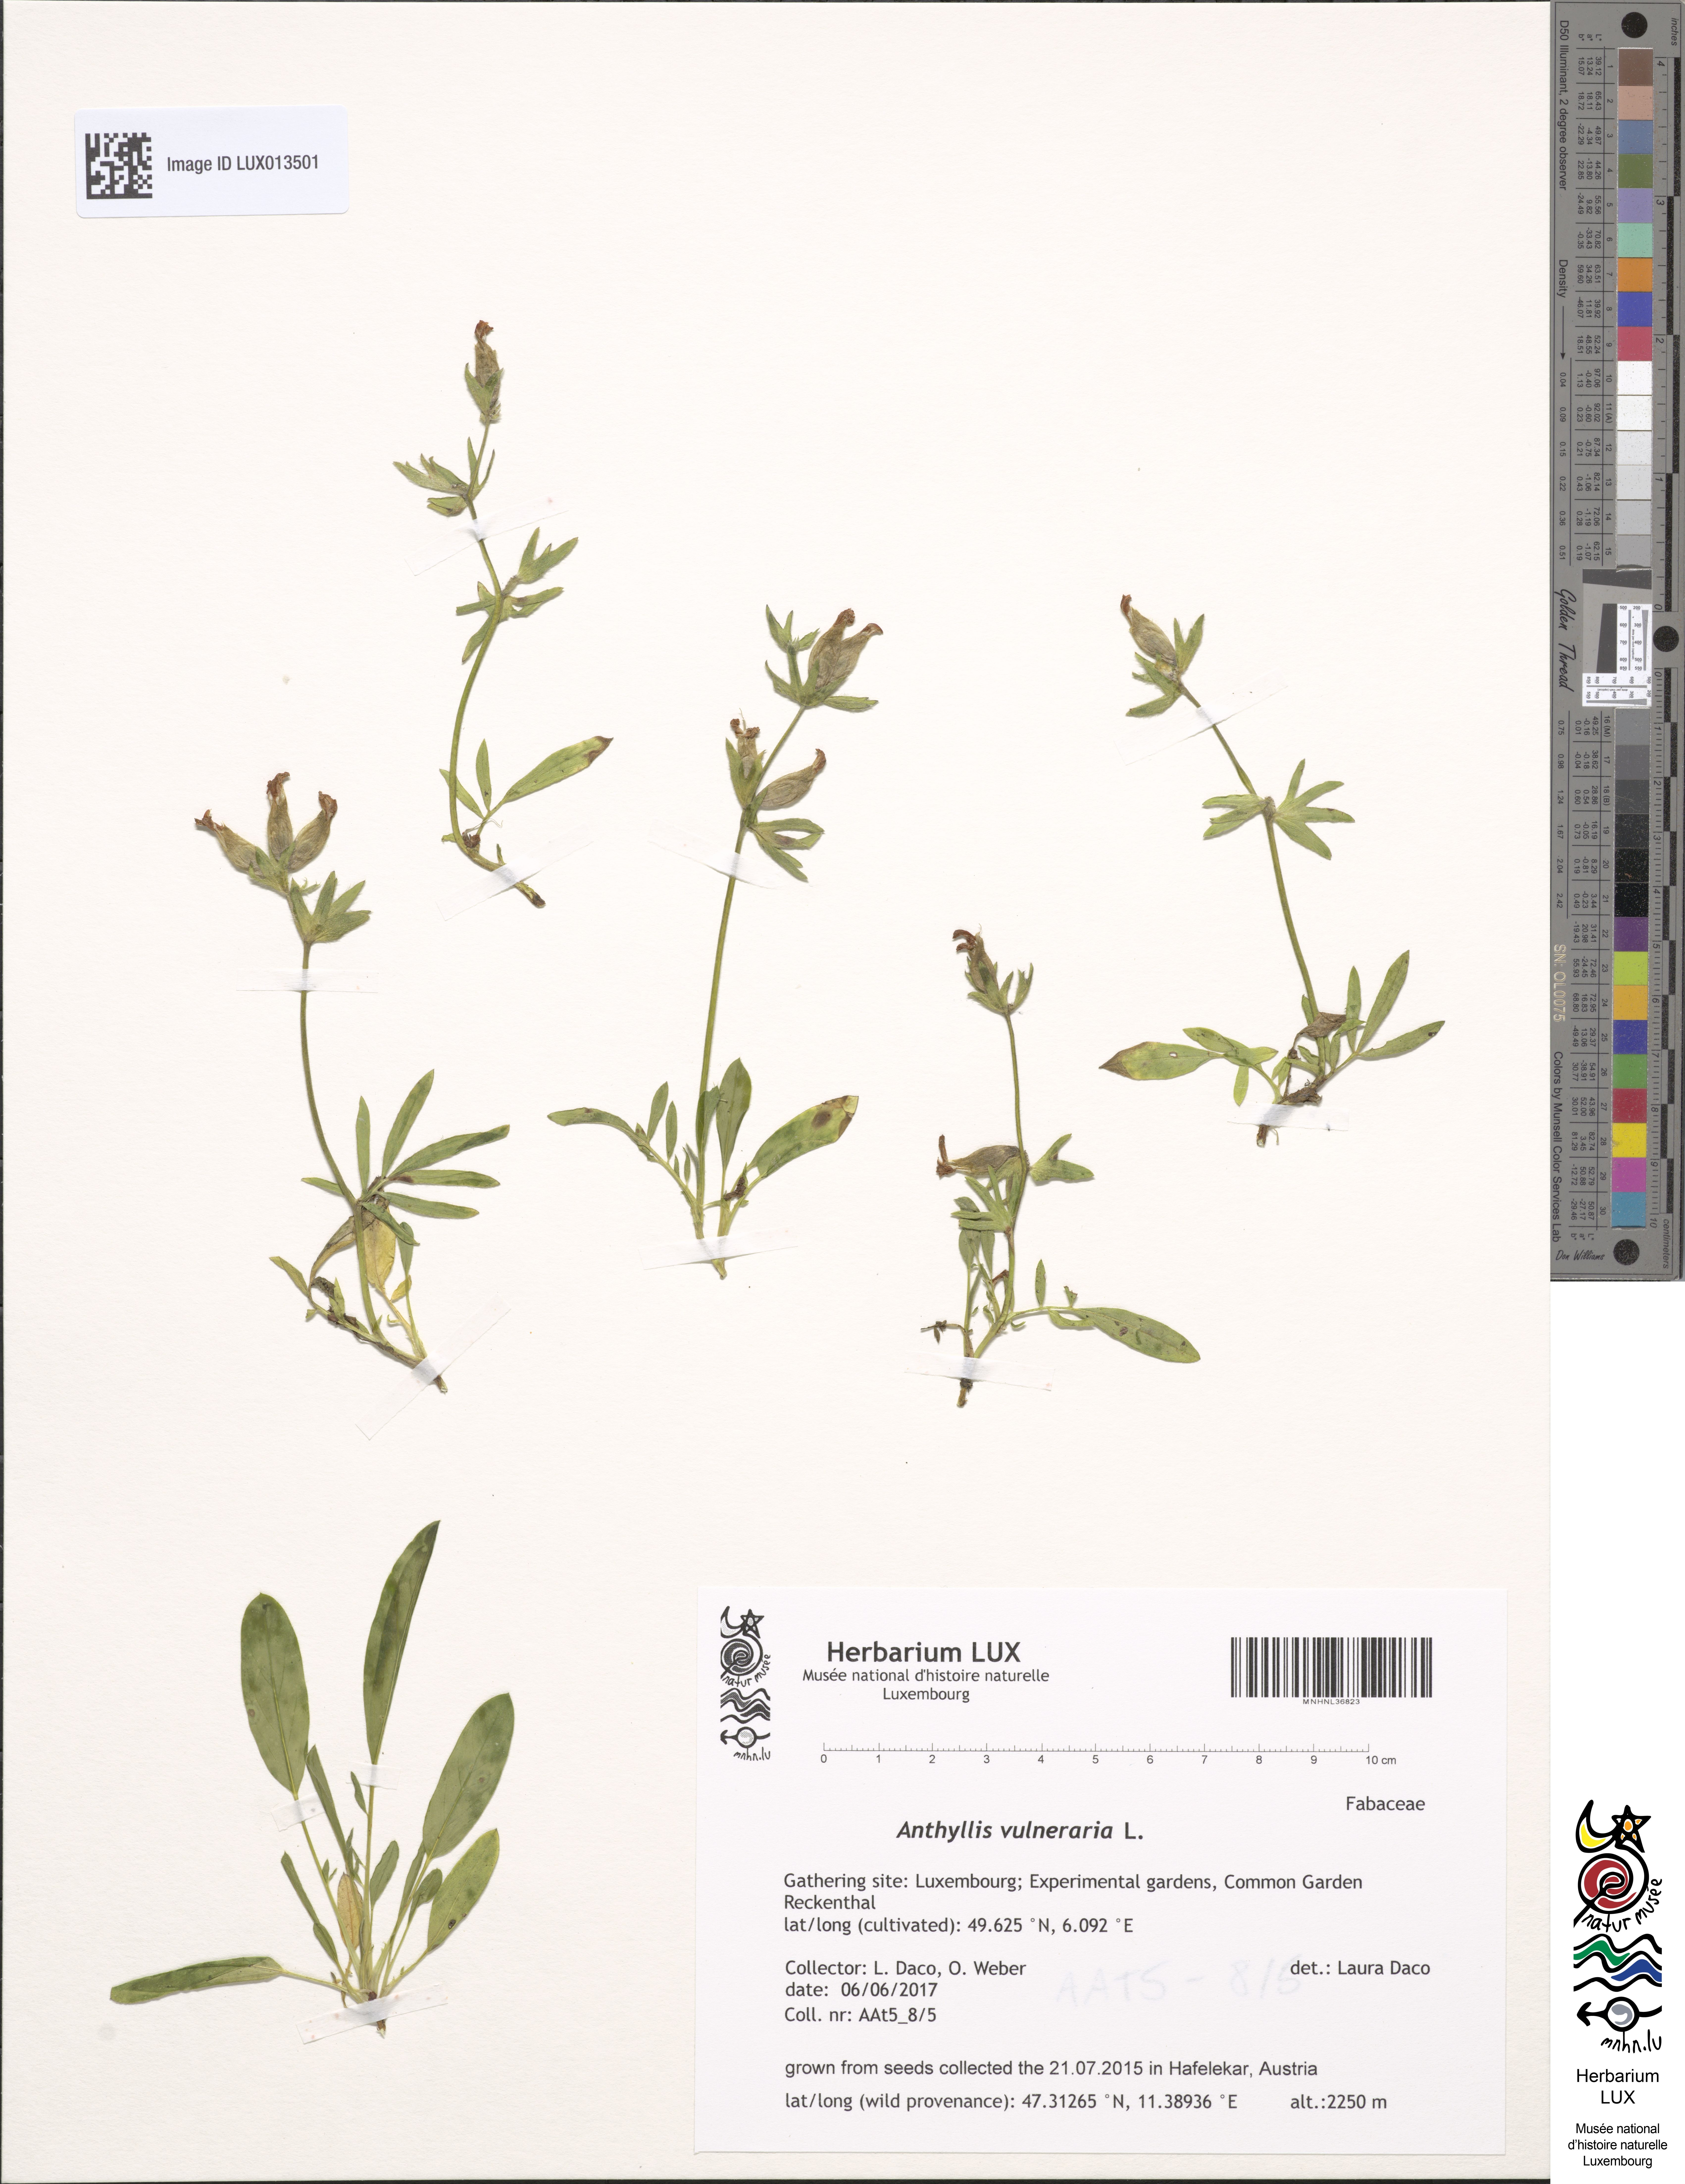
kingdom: Plantae
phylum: Tracheophyta
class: Magnoliopsida
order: Fabales
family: Fabaceae
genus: Anthyllis
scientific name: Anthyllis vulneraria
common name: Kidney vetch
